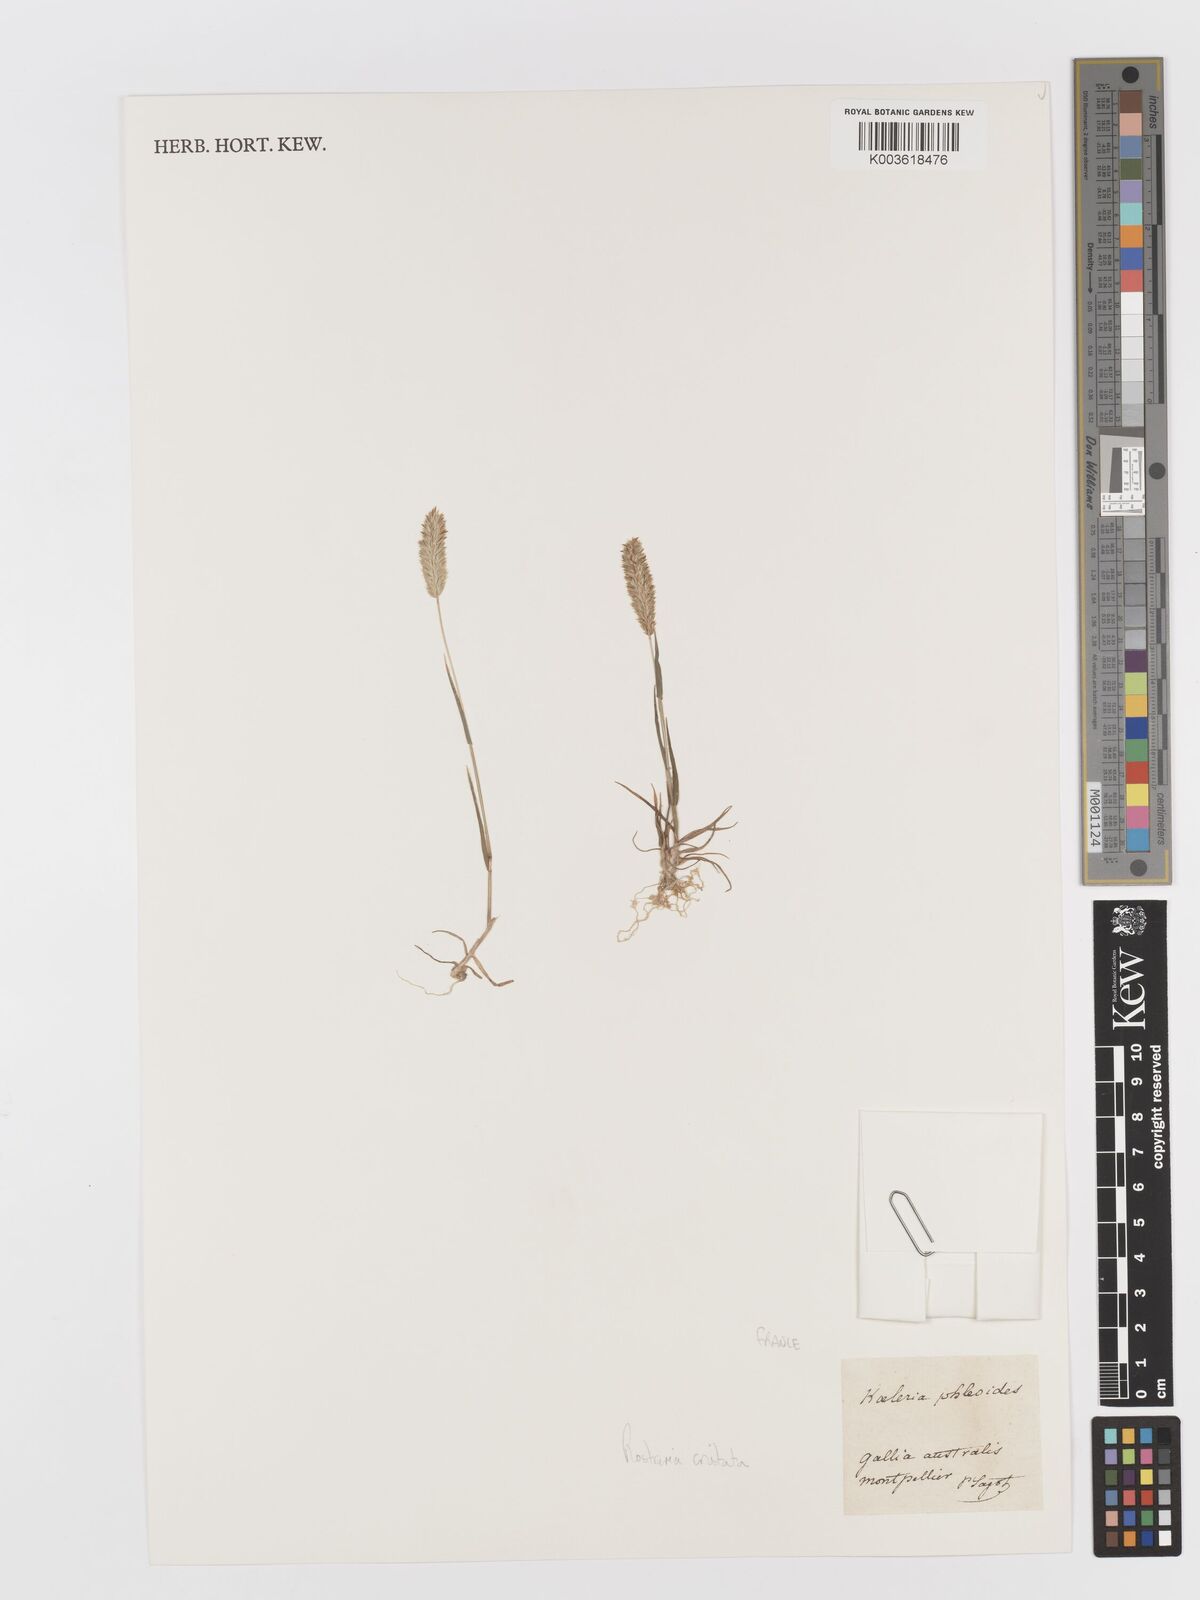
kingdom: Plantae
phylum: Tracheophyta
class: Liliopsida
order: Poales
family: Poaceae
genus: Rostraria
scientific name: Rostraria cristata
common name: Mediterranean hair-grass
